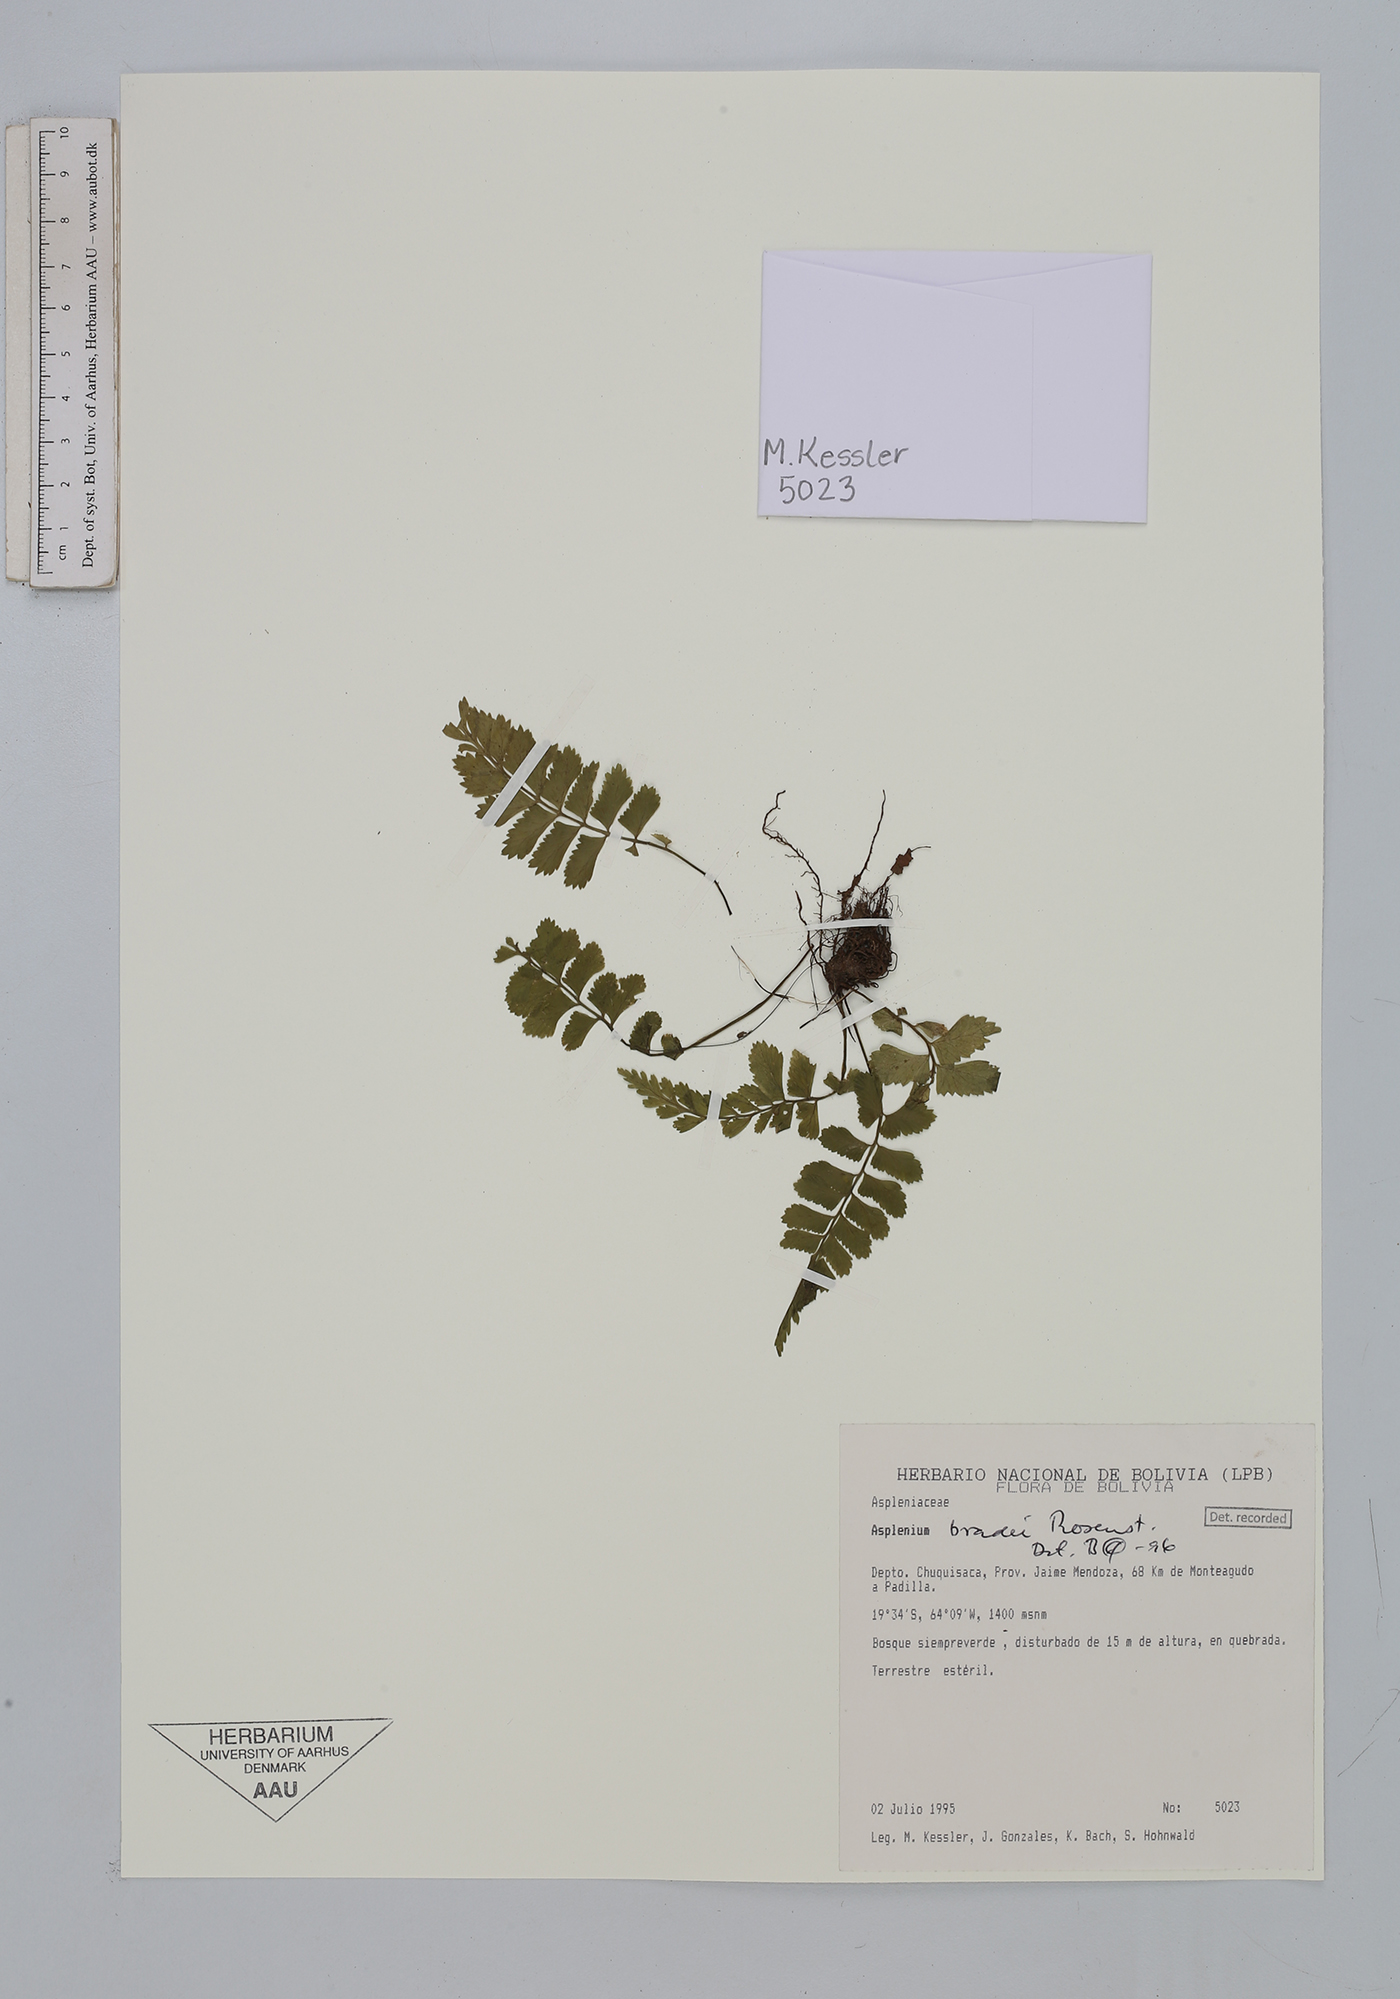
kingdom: Plantae
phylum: Tracheophyta
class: Polypodiopsida
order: Polypodiales
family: Aspleniaceae
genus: Asplenium
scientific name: Asplenium bradei
